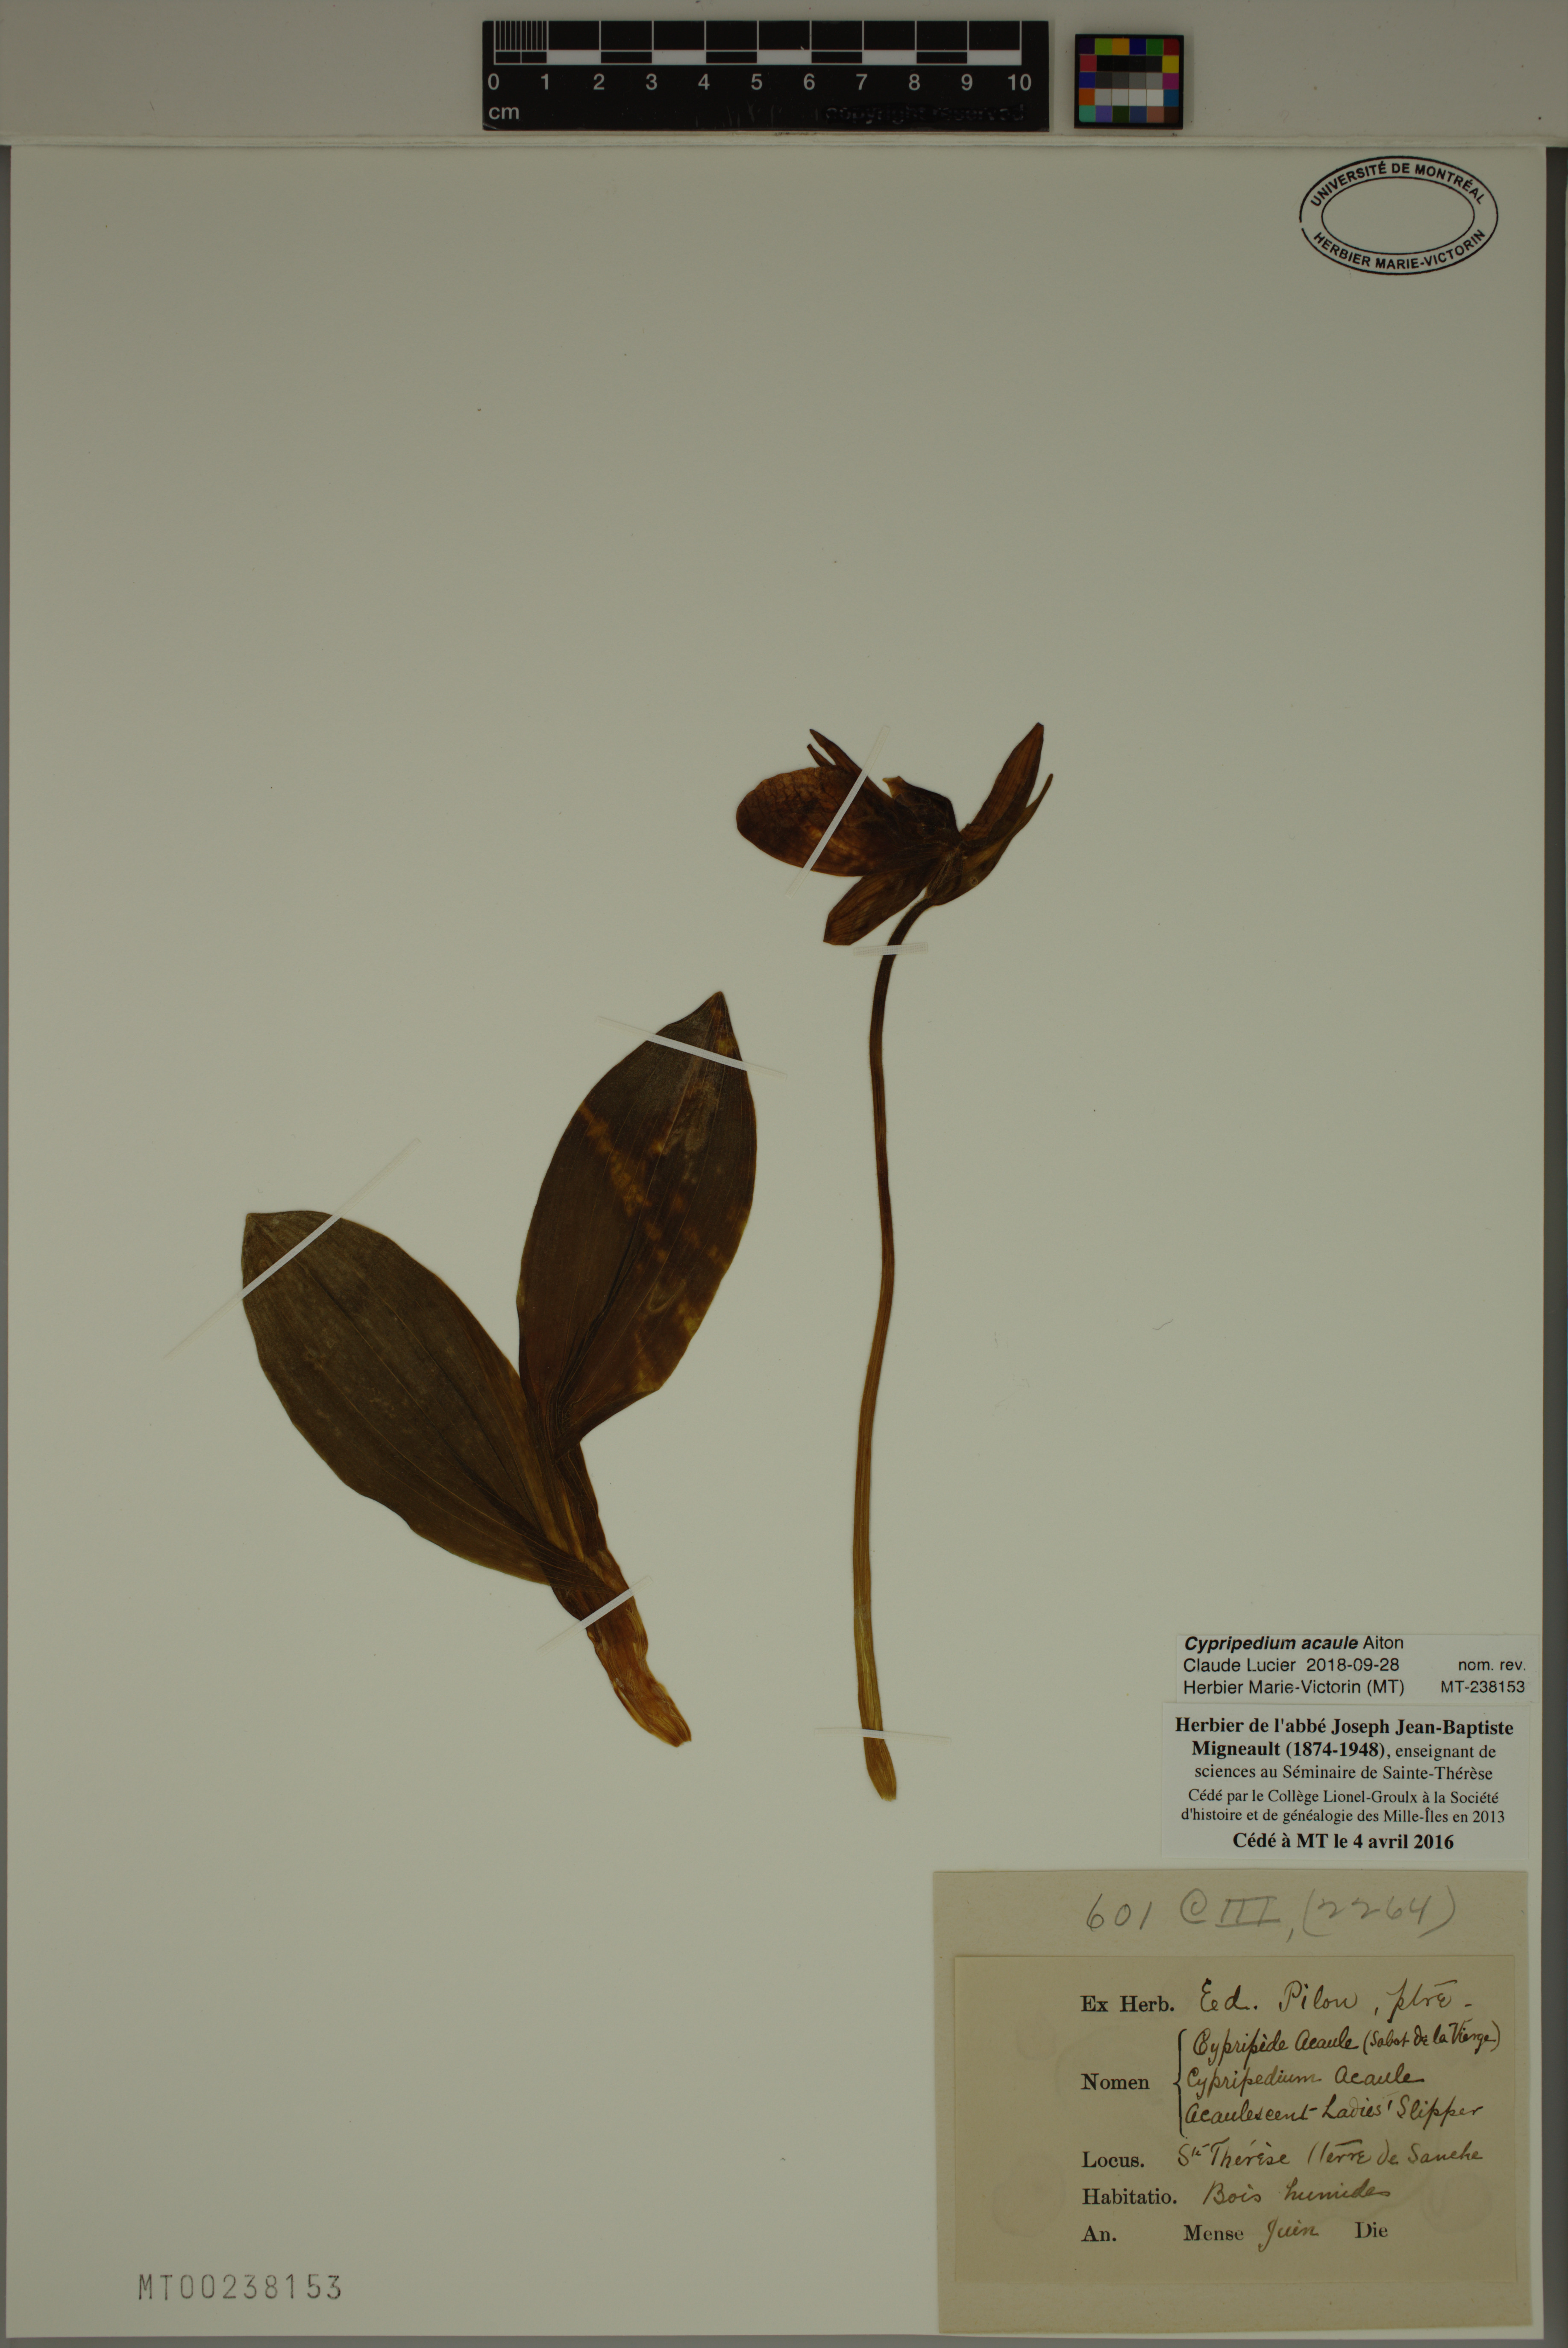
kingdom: Plantae
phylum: Tracheophyta
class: Liliopsida
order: Asparagales
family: Orchidaceae
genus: Cypripedium
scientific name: Cypripedium acaule
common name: Pink lady's-slipper
